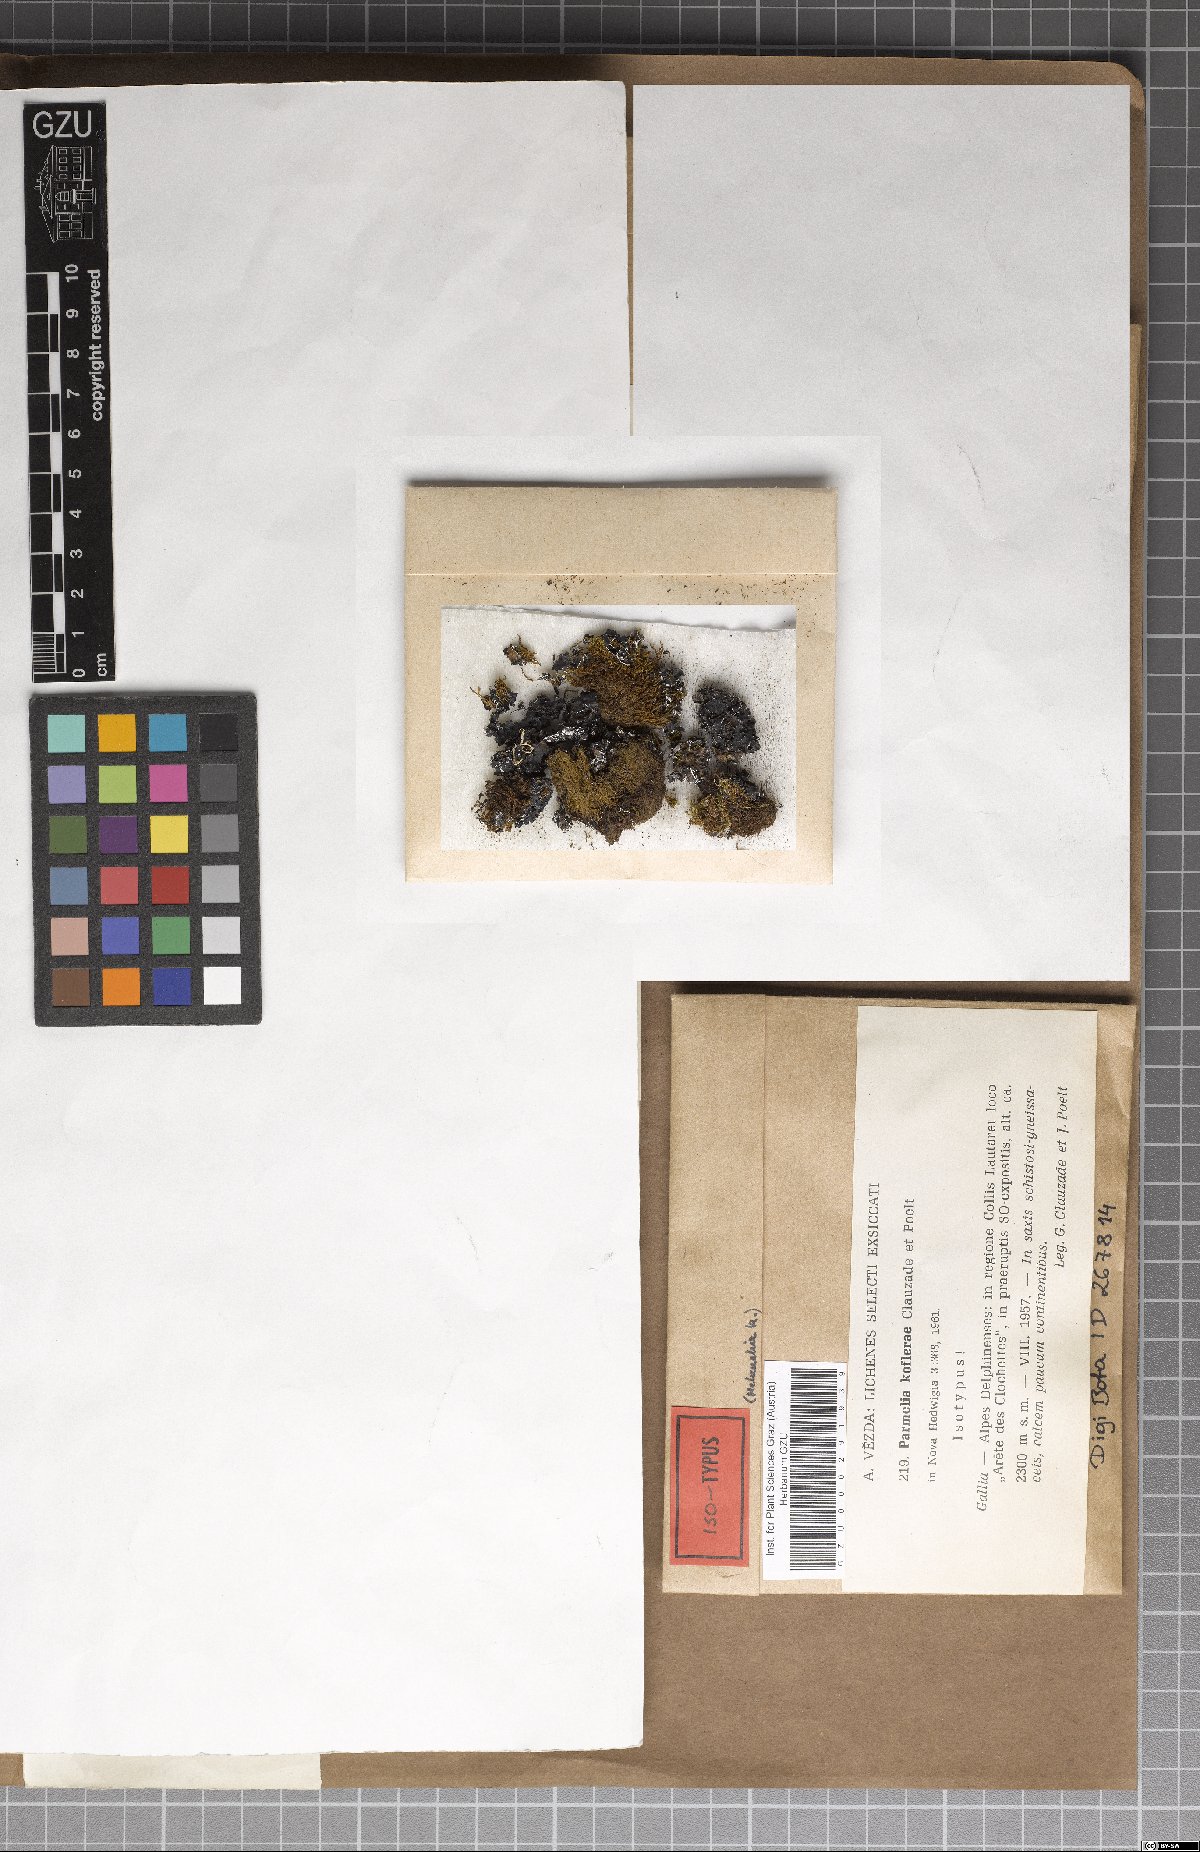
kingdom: Fungi
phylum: Ascomycota
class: Lecanoromycetes
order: Lecanorales
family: Parmeliaceae
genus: Pleurosticta
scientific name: Pleurosticta koflerae
